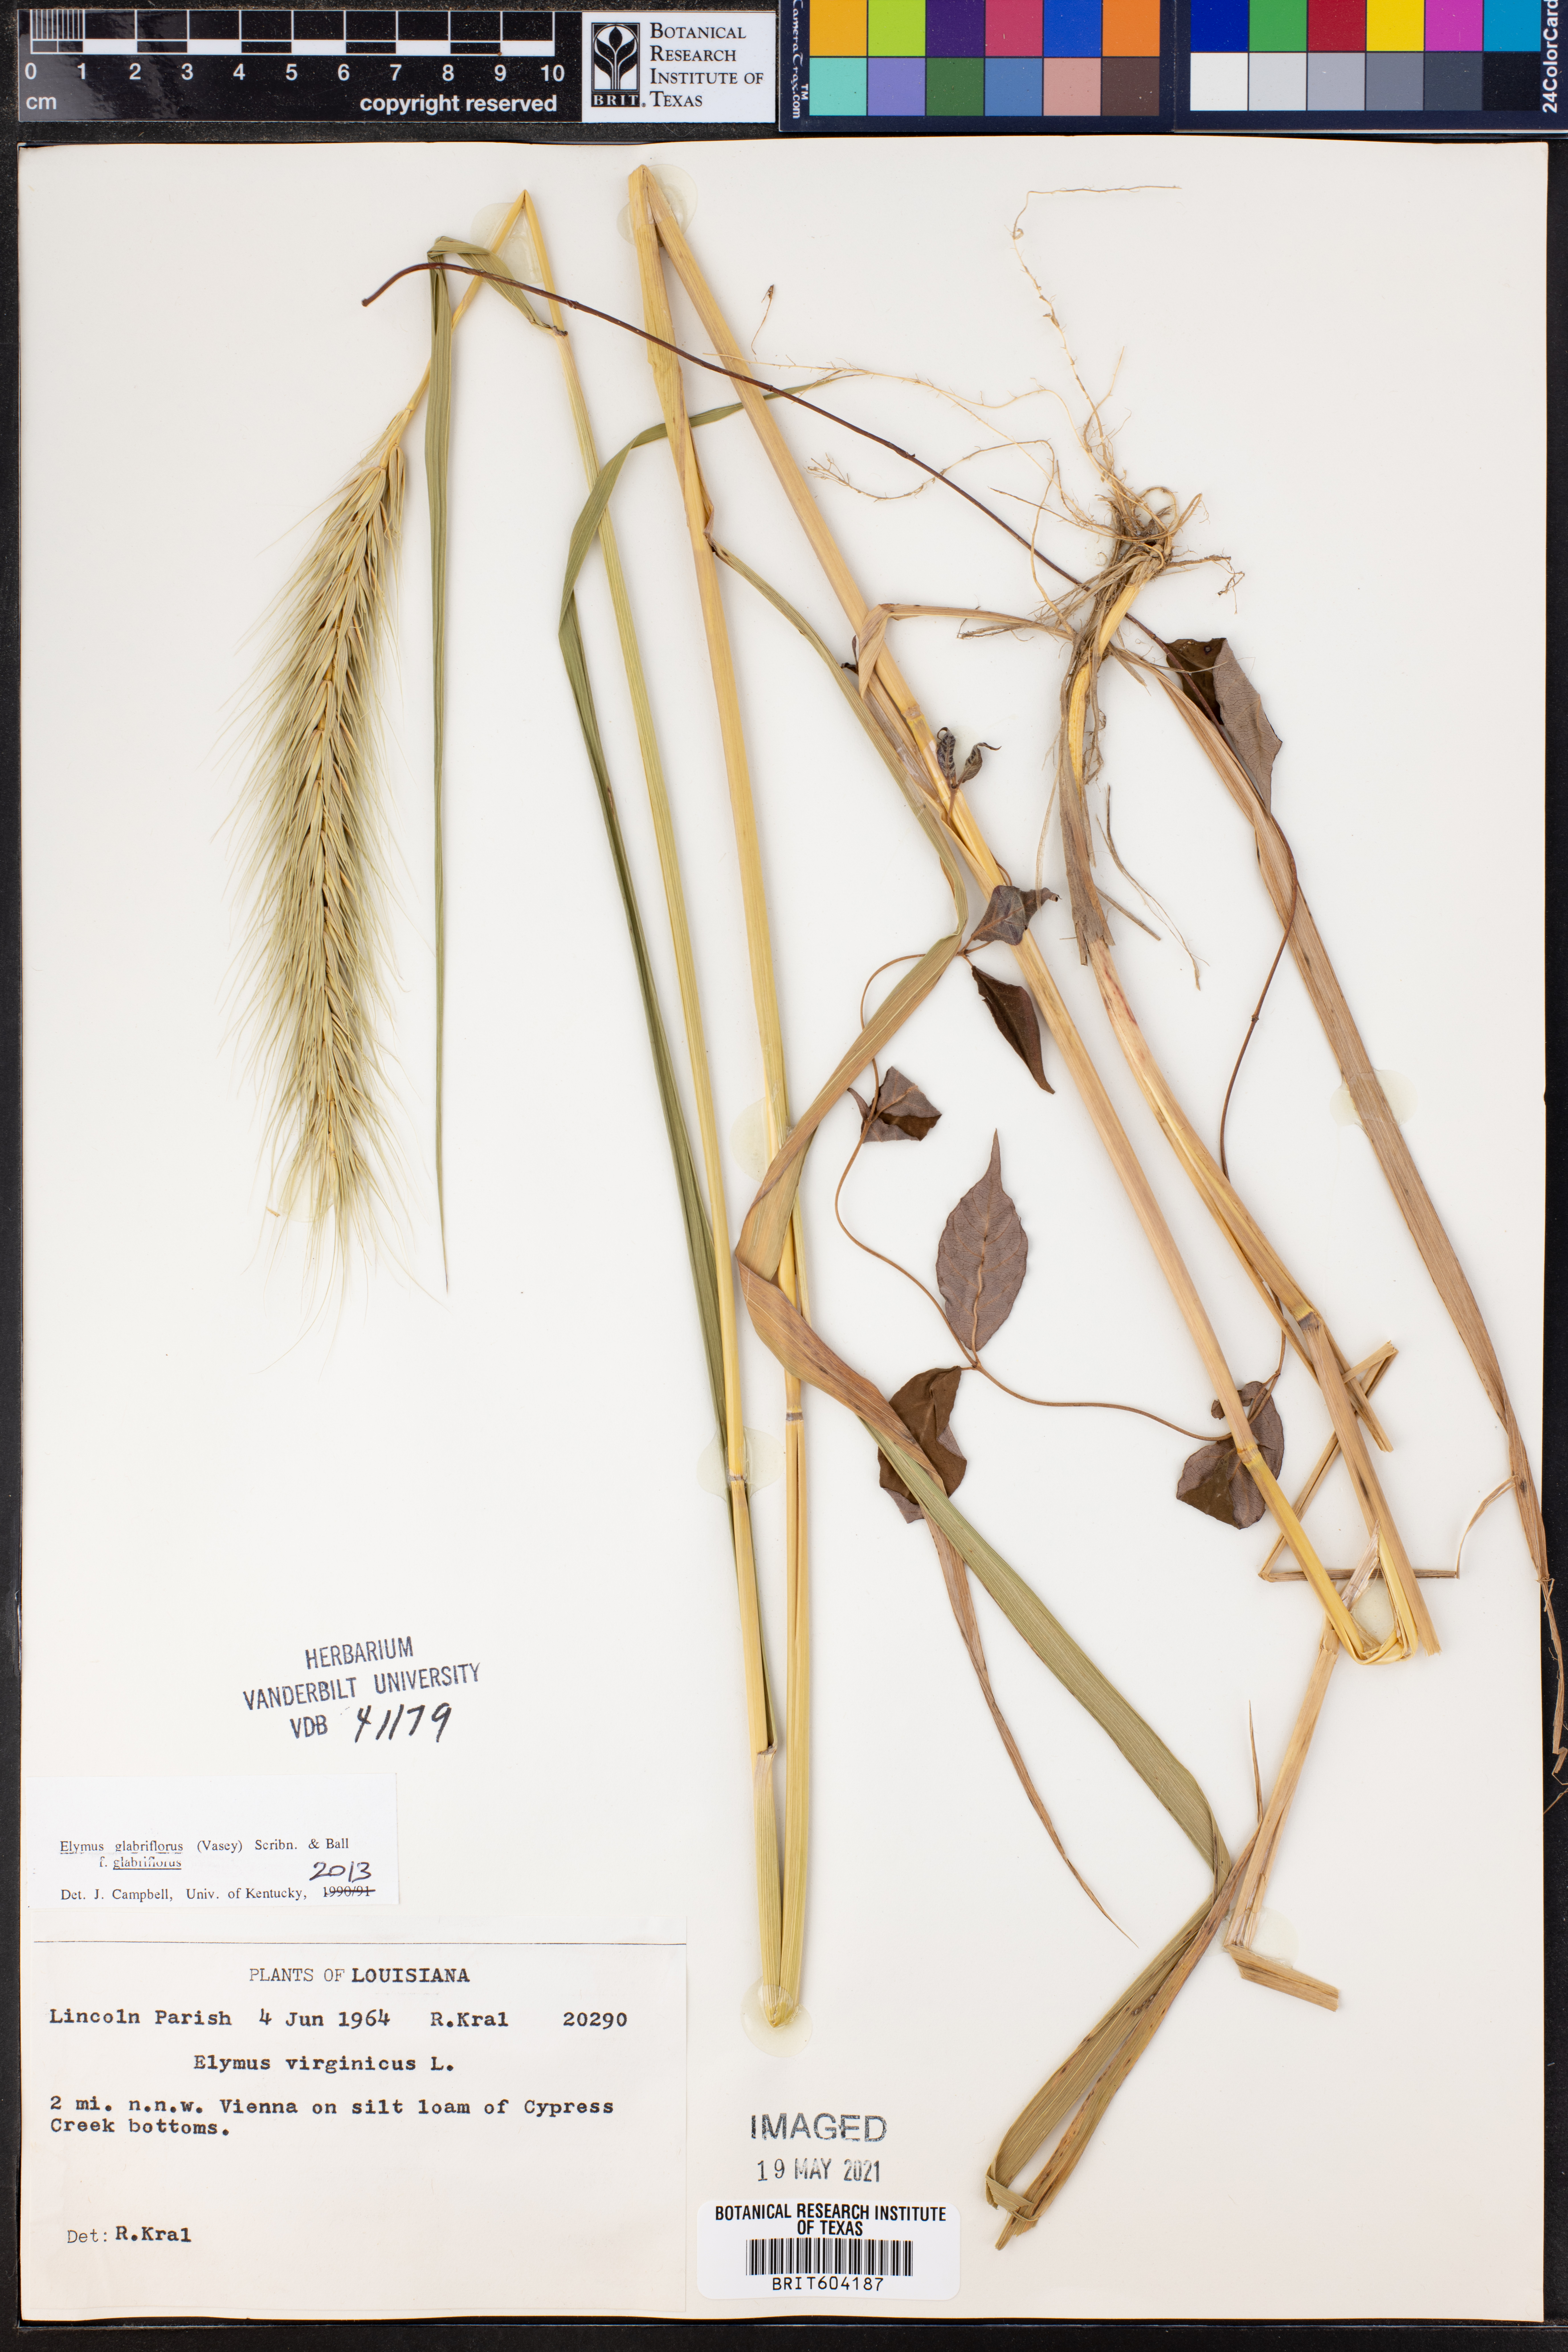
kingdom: Plantae
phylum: Tracheophyta
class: Liliopsida
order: Poales
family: Poaceae
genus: Elymus
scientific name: Elymus virginicus
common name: Common eastern wildrye
